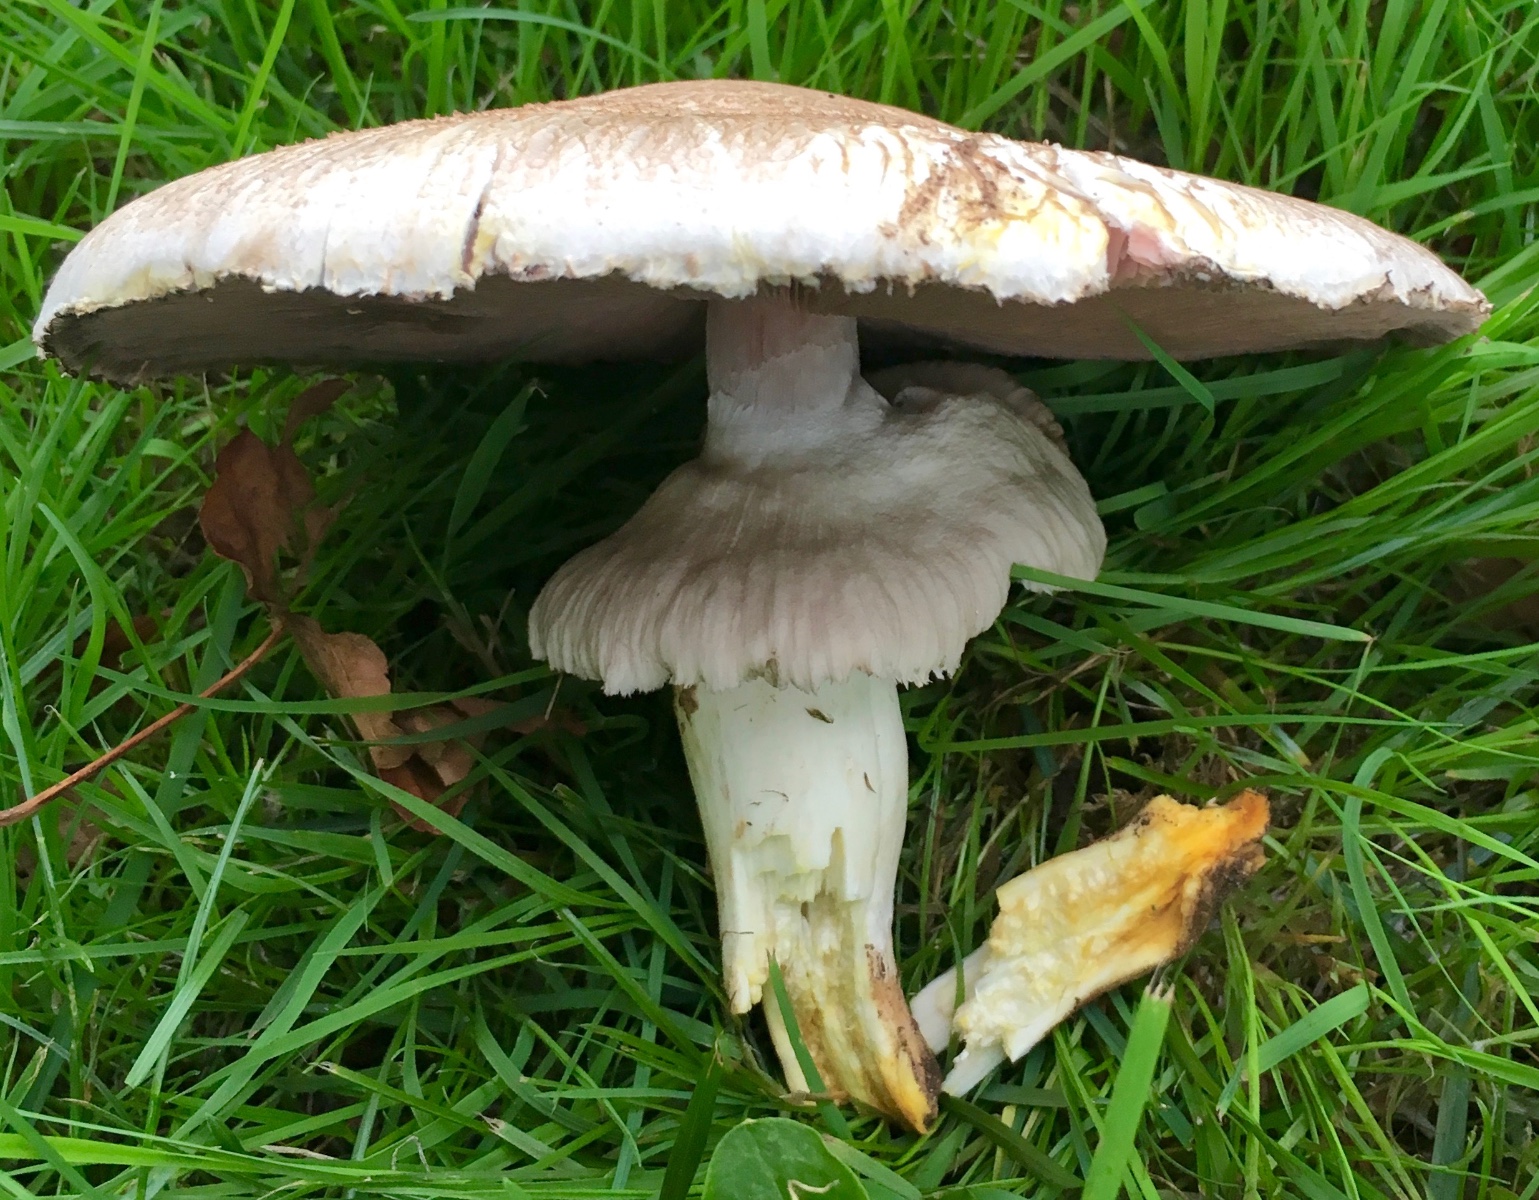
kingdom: Fungi
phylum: Basidiomycota
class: Agaricomycetes
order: Agaricales
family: Agaricaceae
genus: Agaricus
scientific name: Agaricus xanthodermus
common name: karbol-champignon
